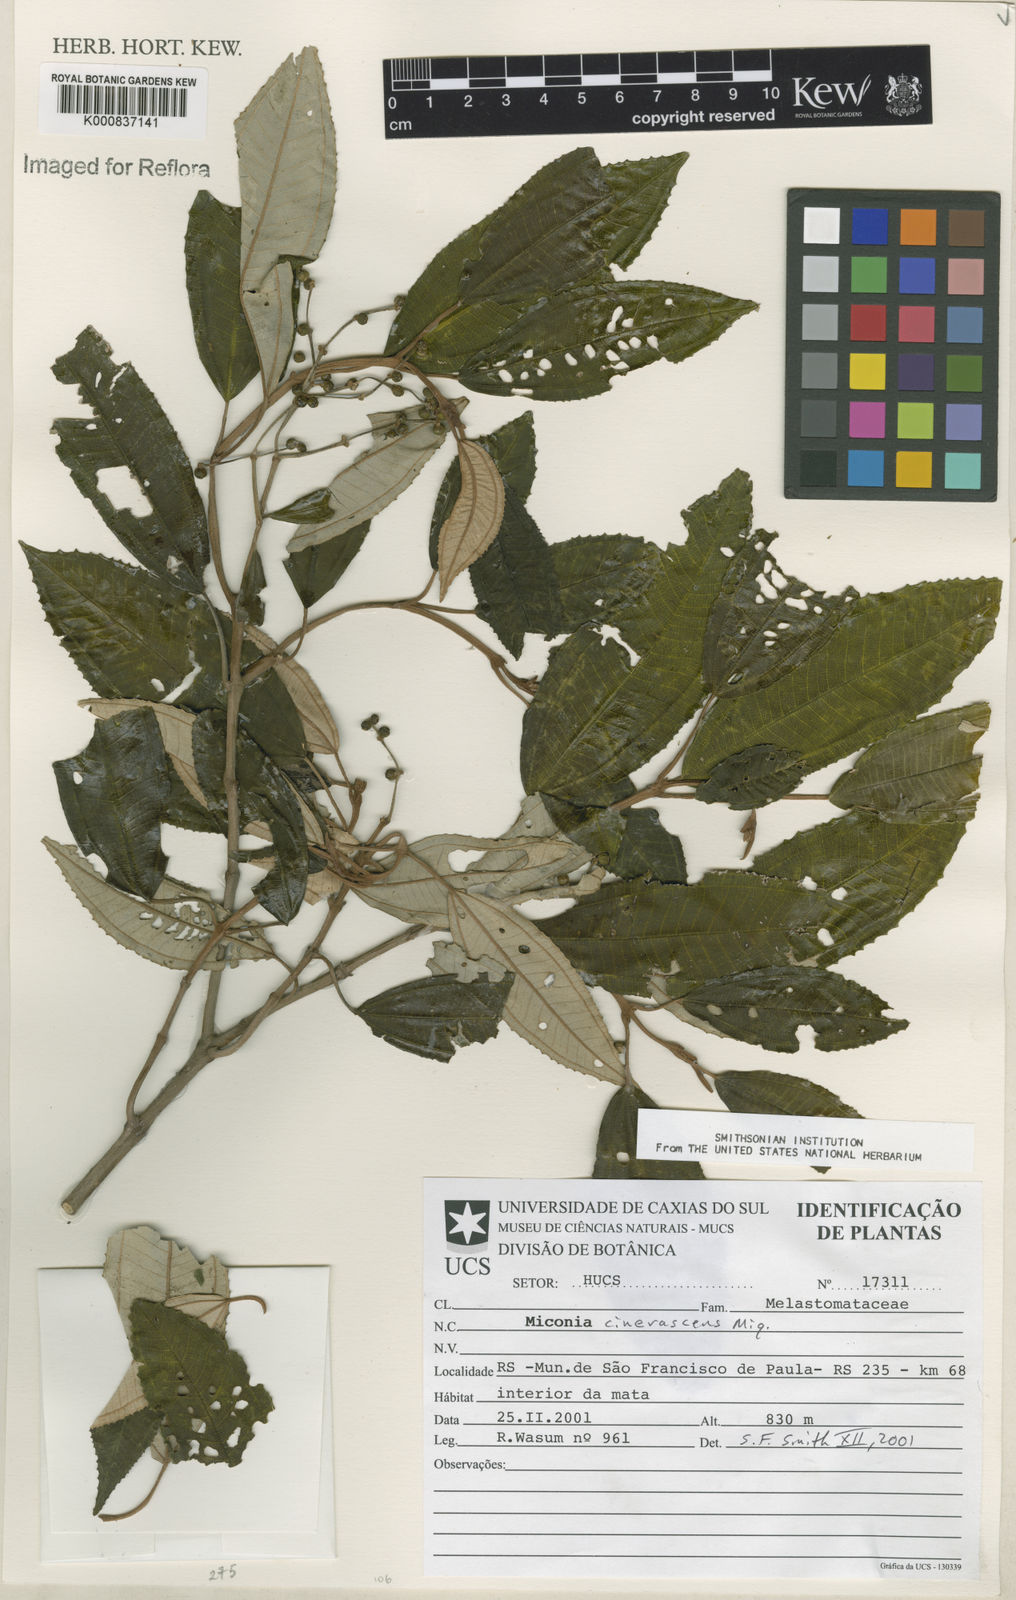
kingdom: Plantae
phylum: Tracheophyta
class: Magnoliopsida
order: Myrtales
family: Melastomataceae
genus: Miconia
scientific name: Miconia cinerascens
